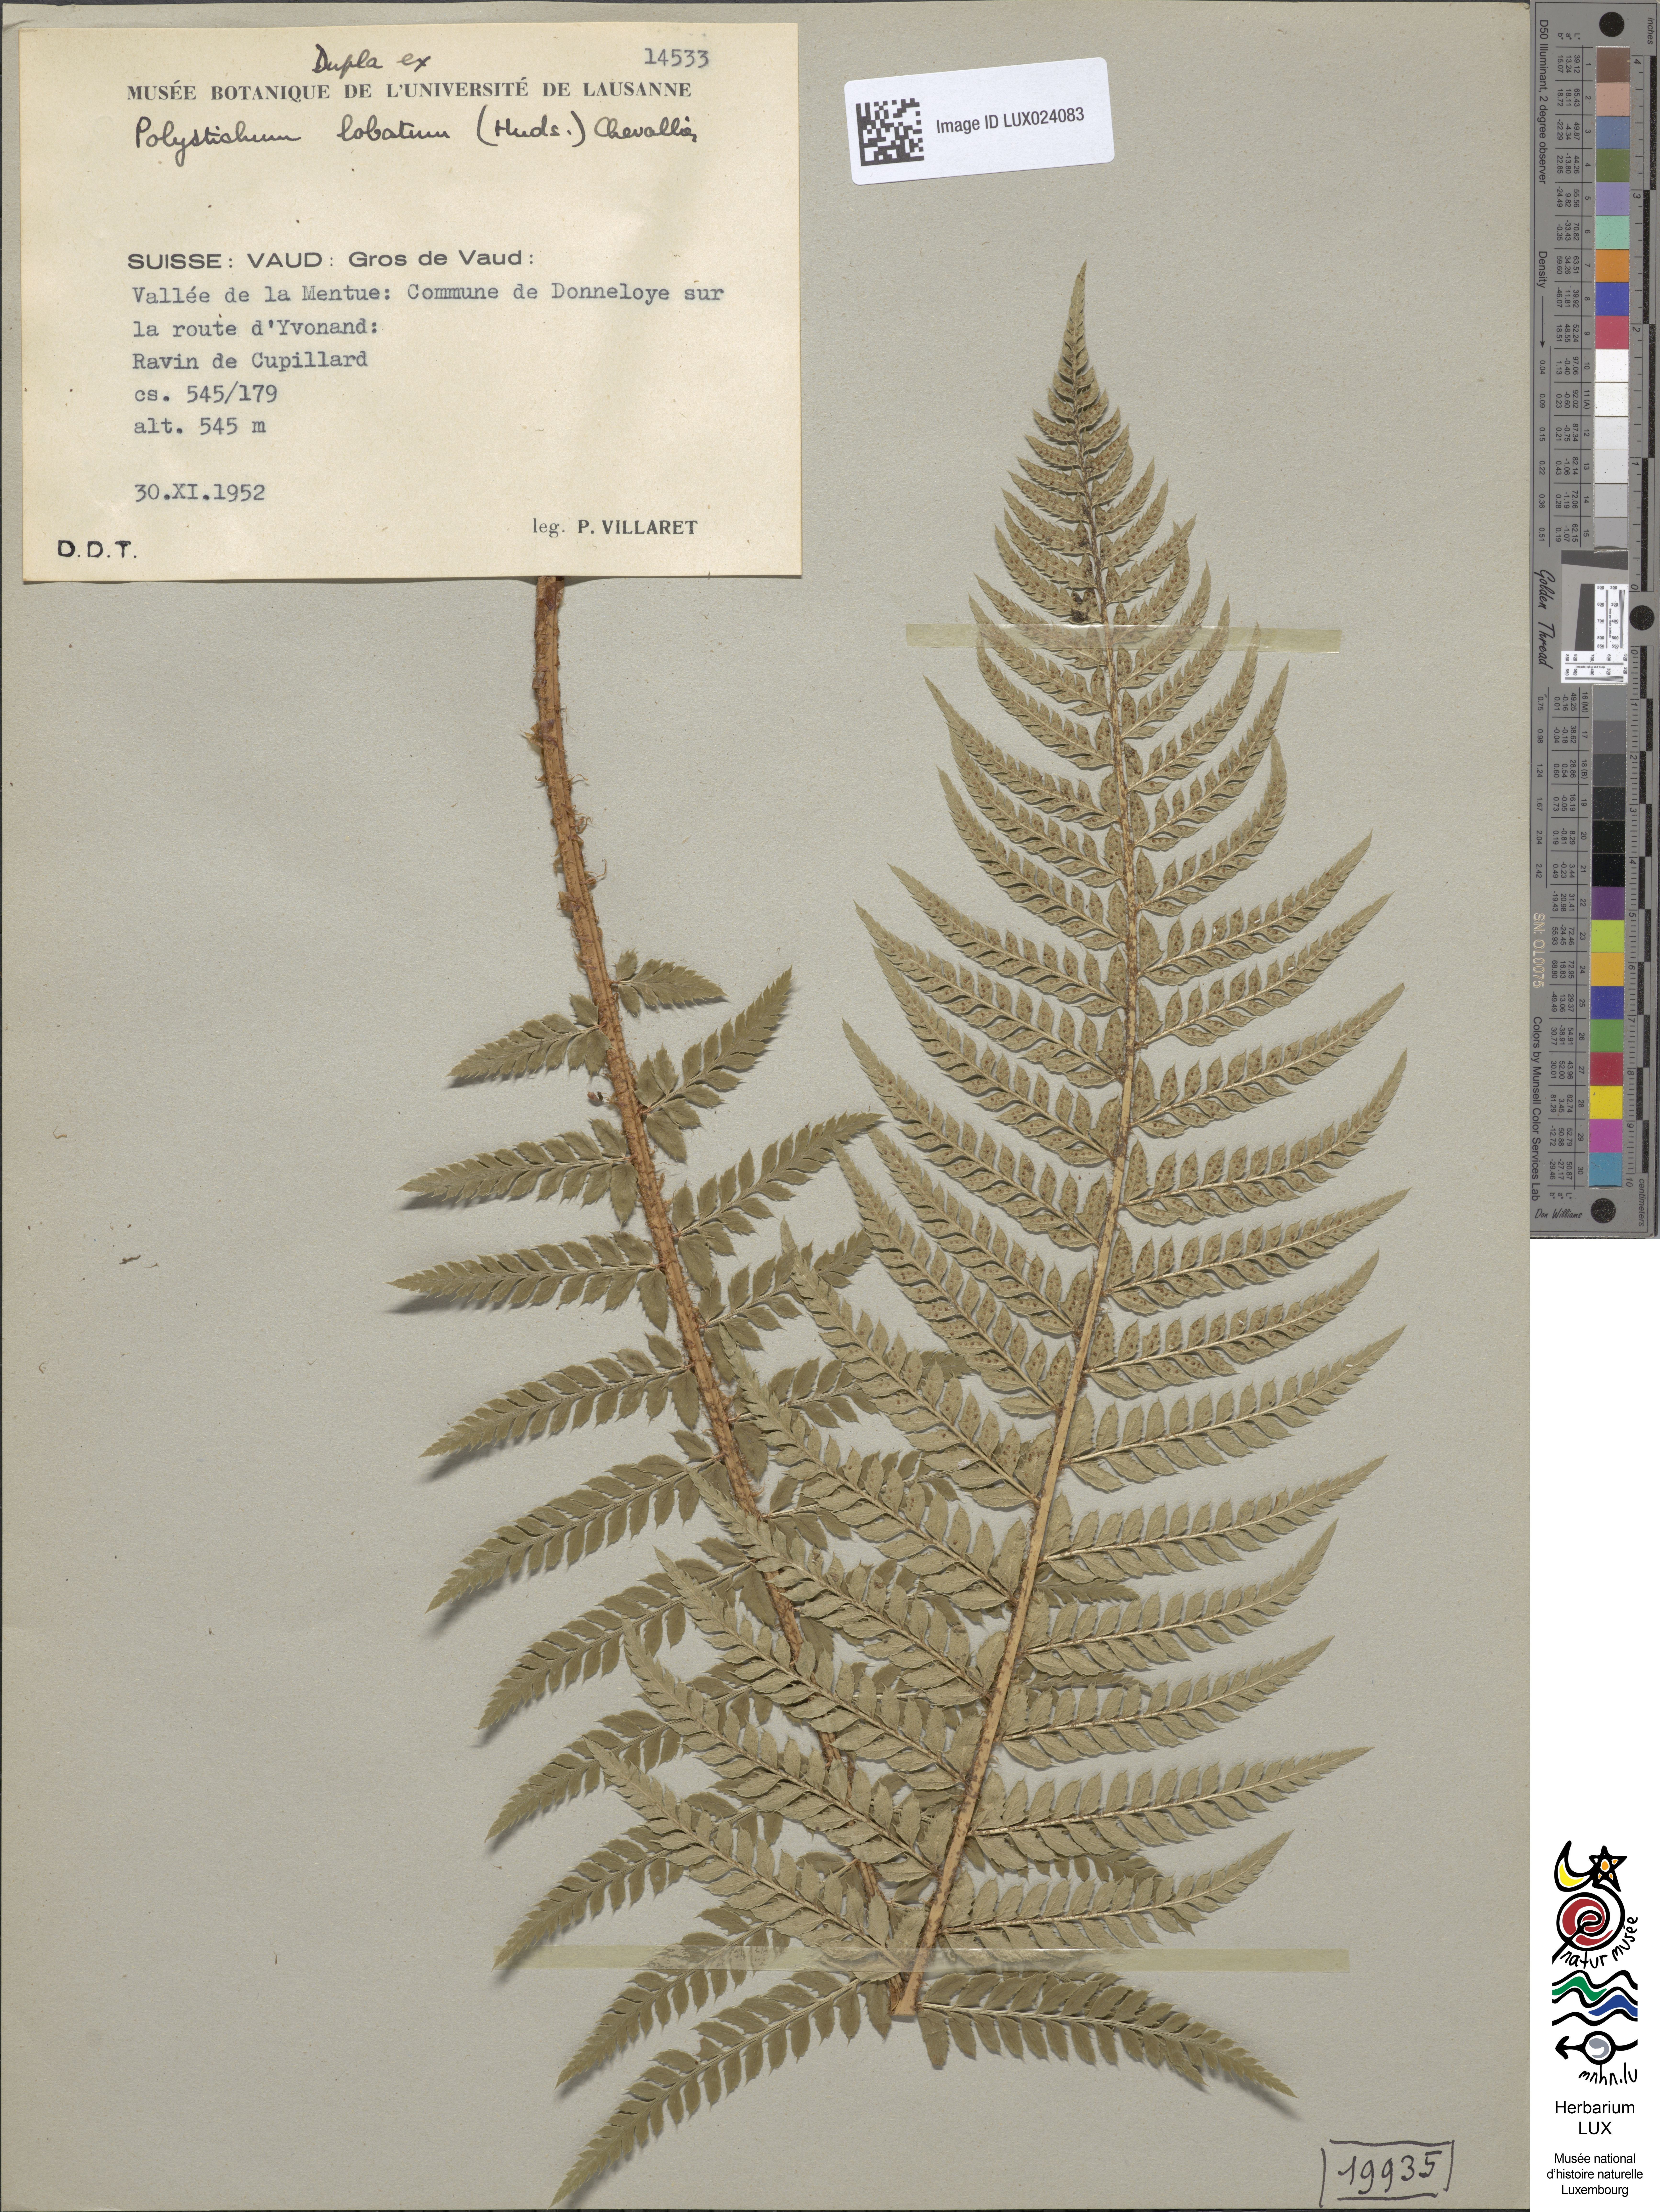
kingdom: Plantae
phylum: Tracheophyta
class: Polypodiopsida
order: Polypodiales
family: Dryopteridaceae
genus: Polystichum
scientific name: Polystichum aculeatum
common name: Hard shield-fern
